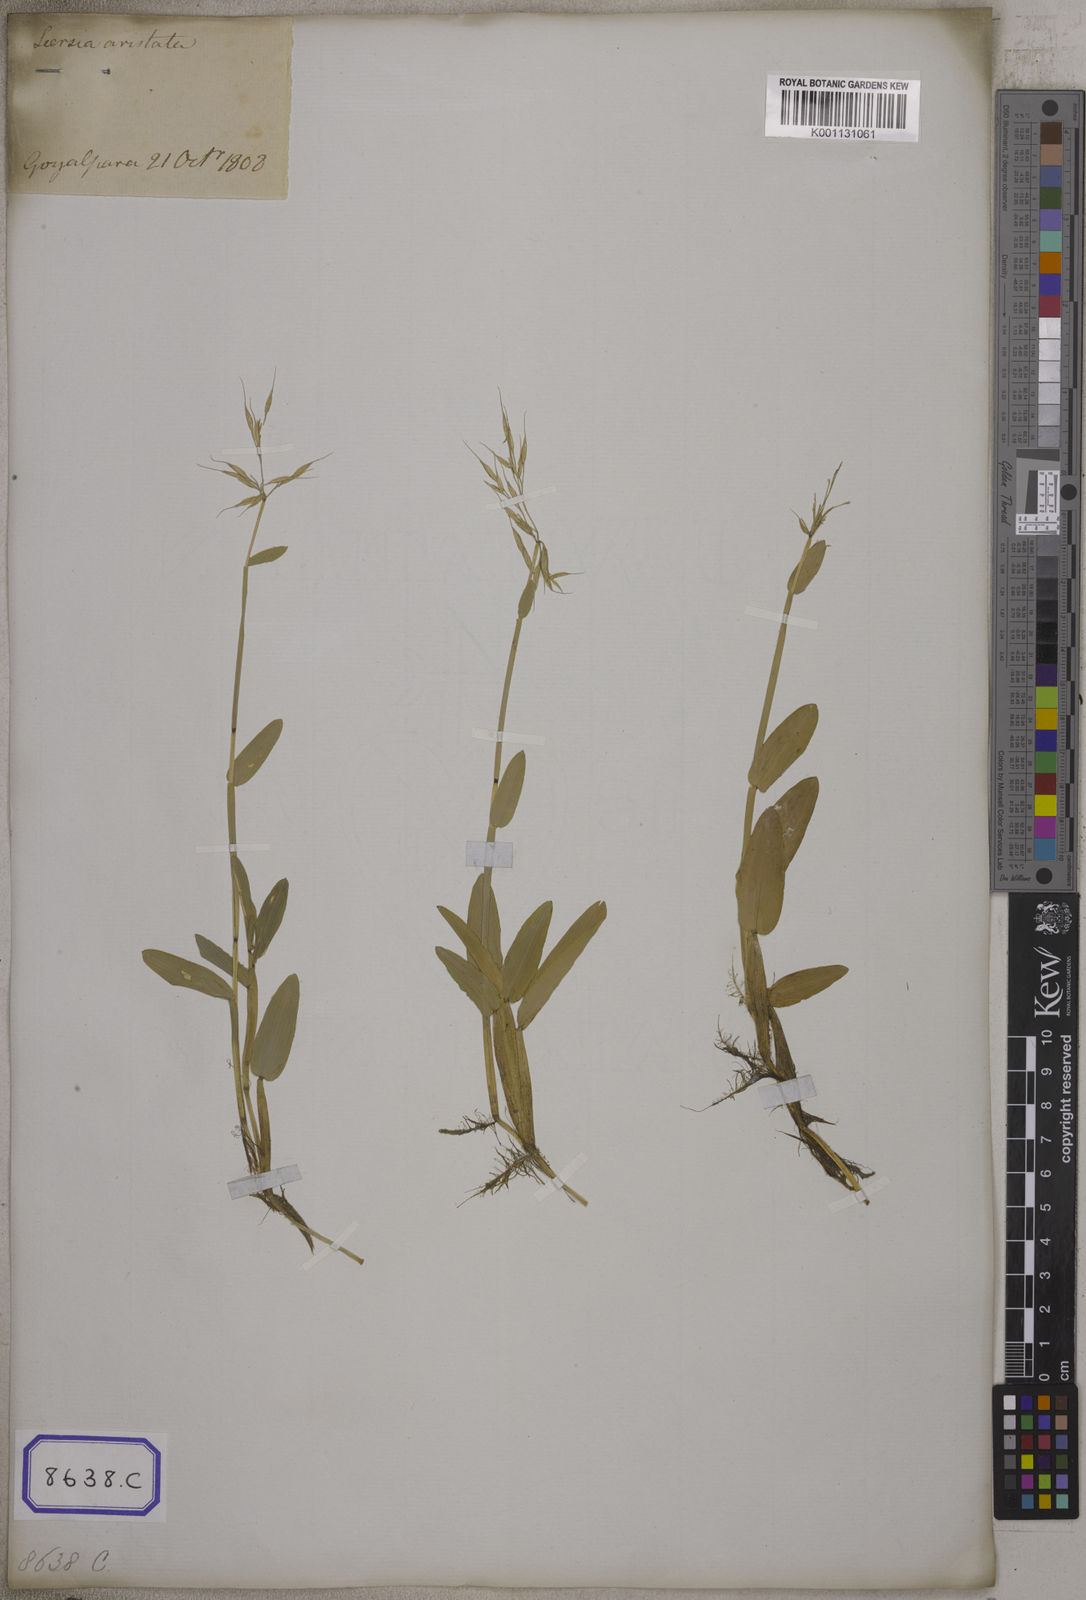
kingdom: Plantae
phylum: Tracheophyta
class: Liliopsida
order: Poales
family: Poaceae
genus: Hygroryza
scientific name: Hygroryza
